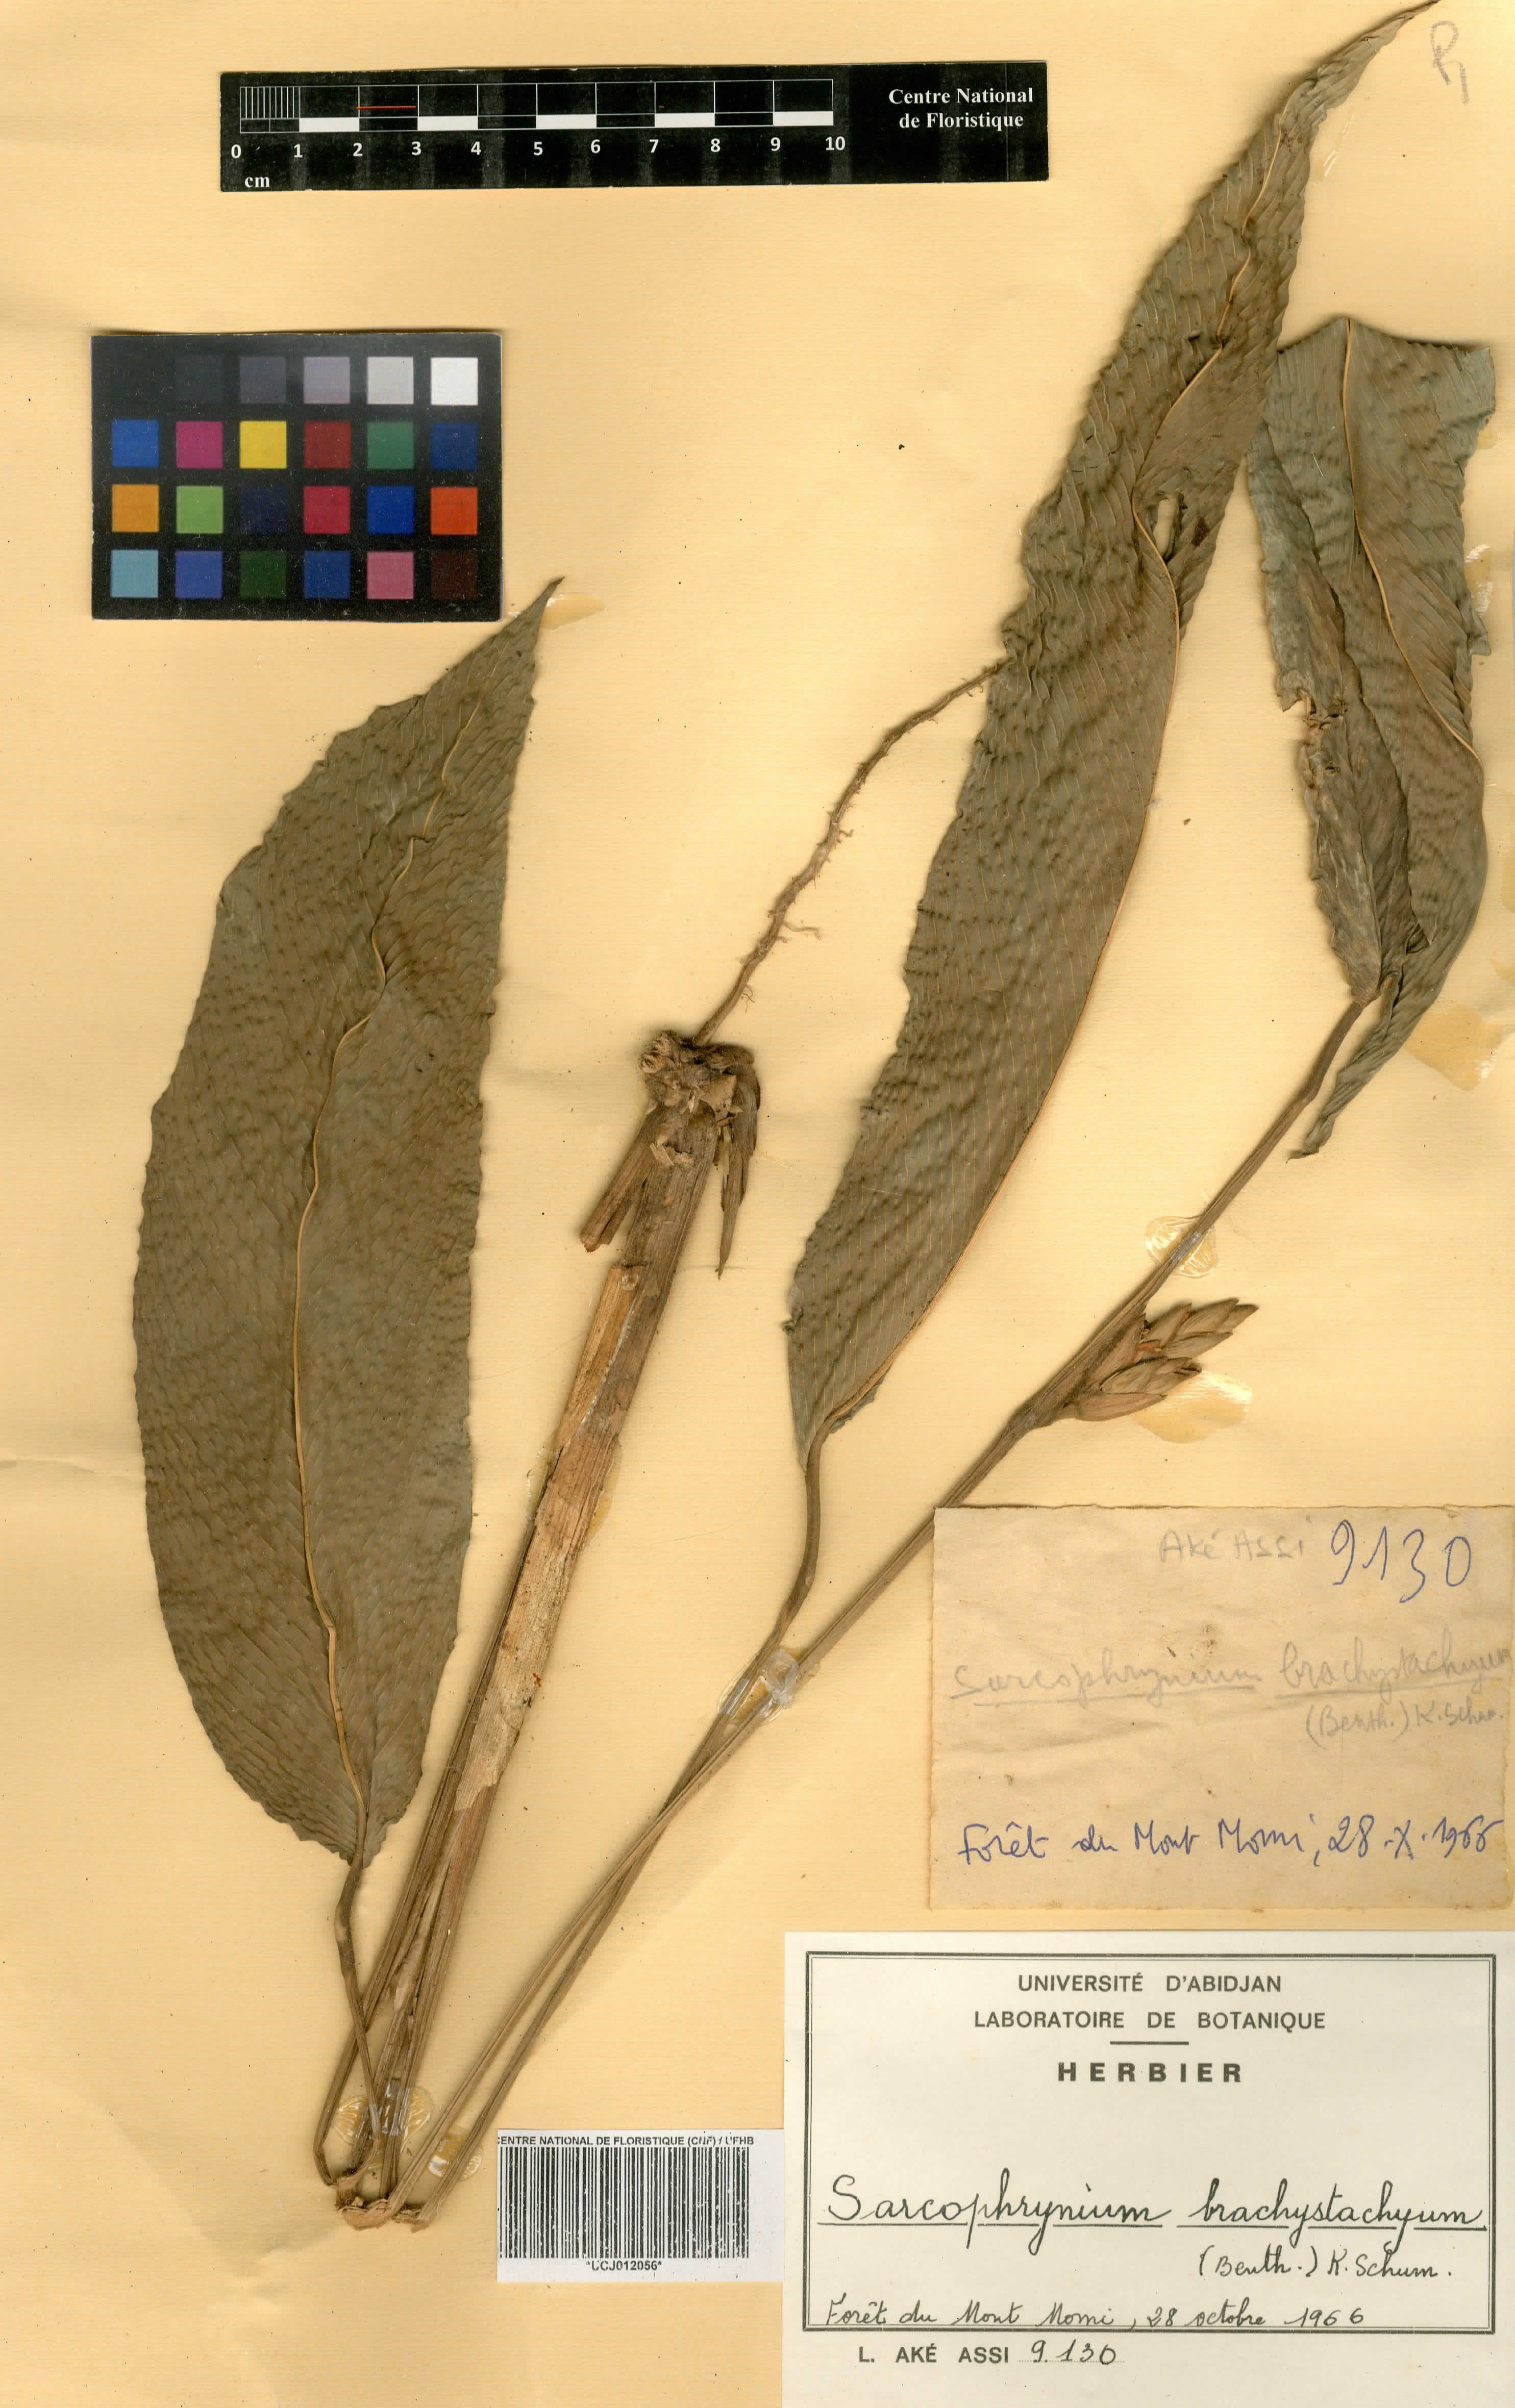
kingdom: Plantae
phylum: Tracheophyta
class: Liliopsida
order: Zingiberales
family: Marantaceae
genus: Sarcophrynium
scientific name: Sarcophrynium brachystachyum
